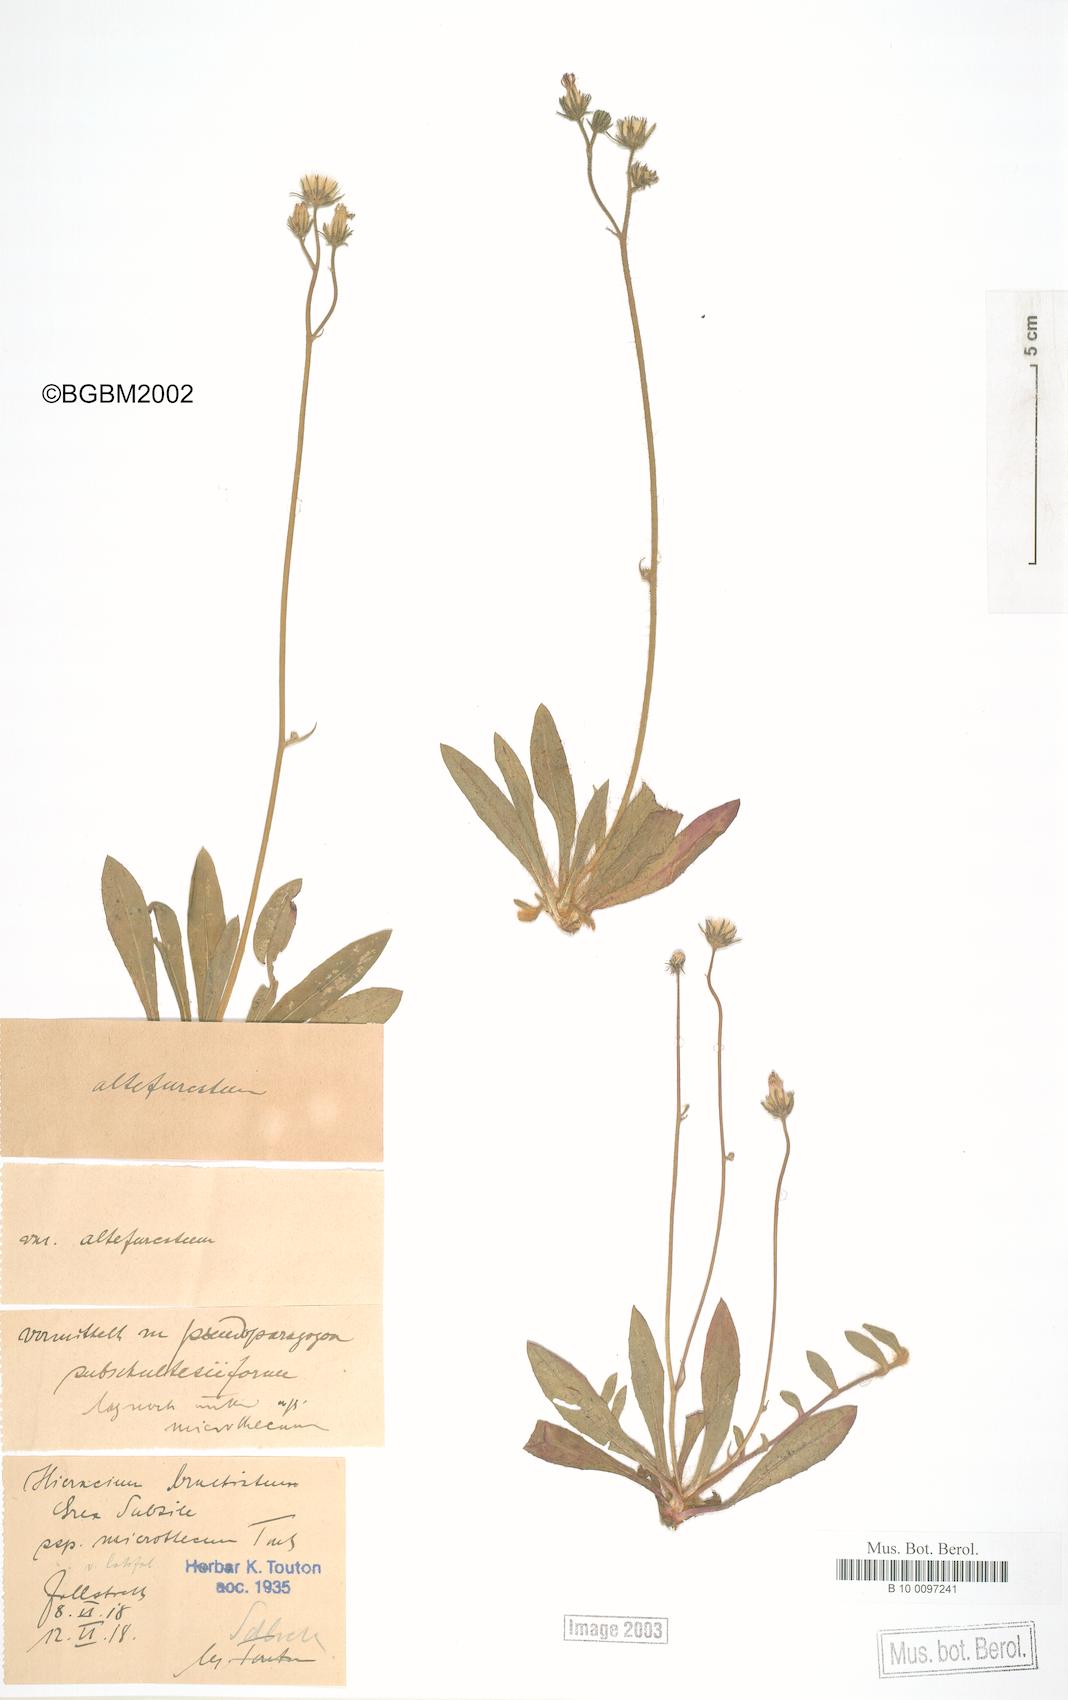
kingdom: Plantae
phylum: Tracheophyta
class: Magnoliopsida
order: Asterales
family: Asteraceae
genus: Pilosella
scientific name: Pilosella acutifolia
